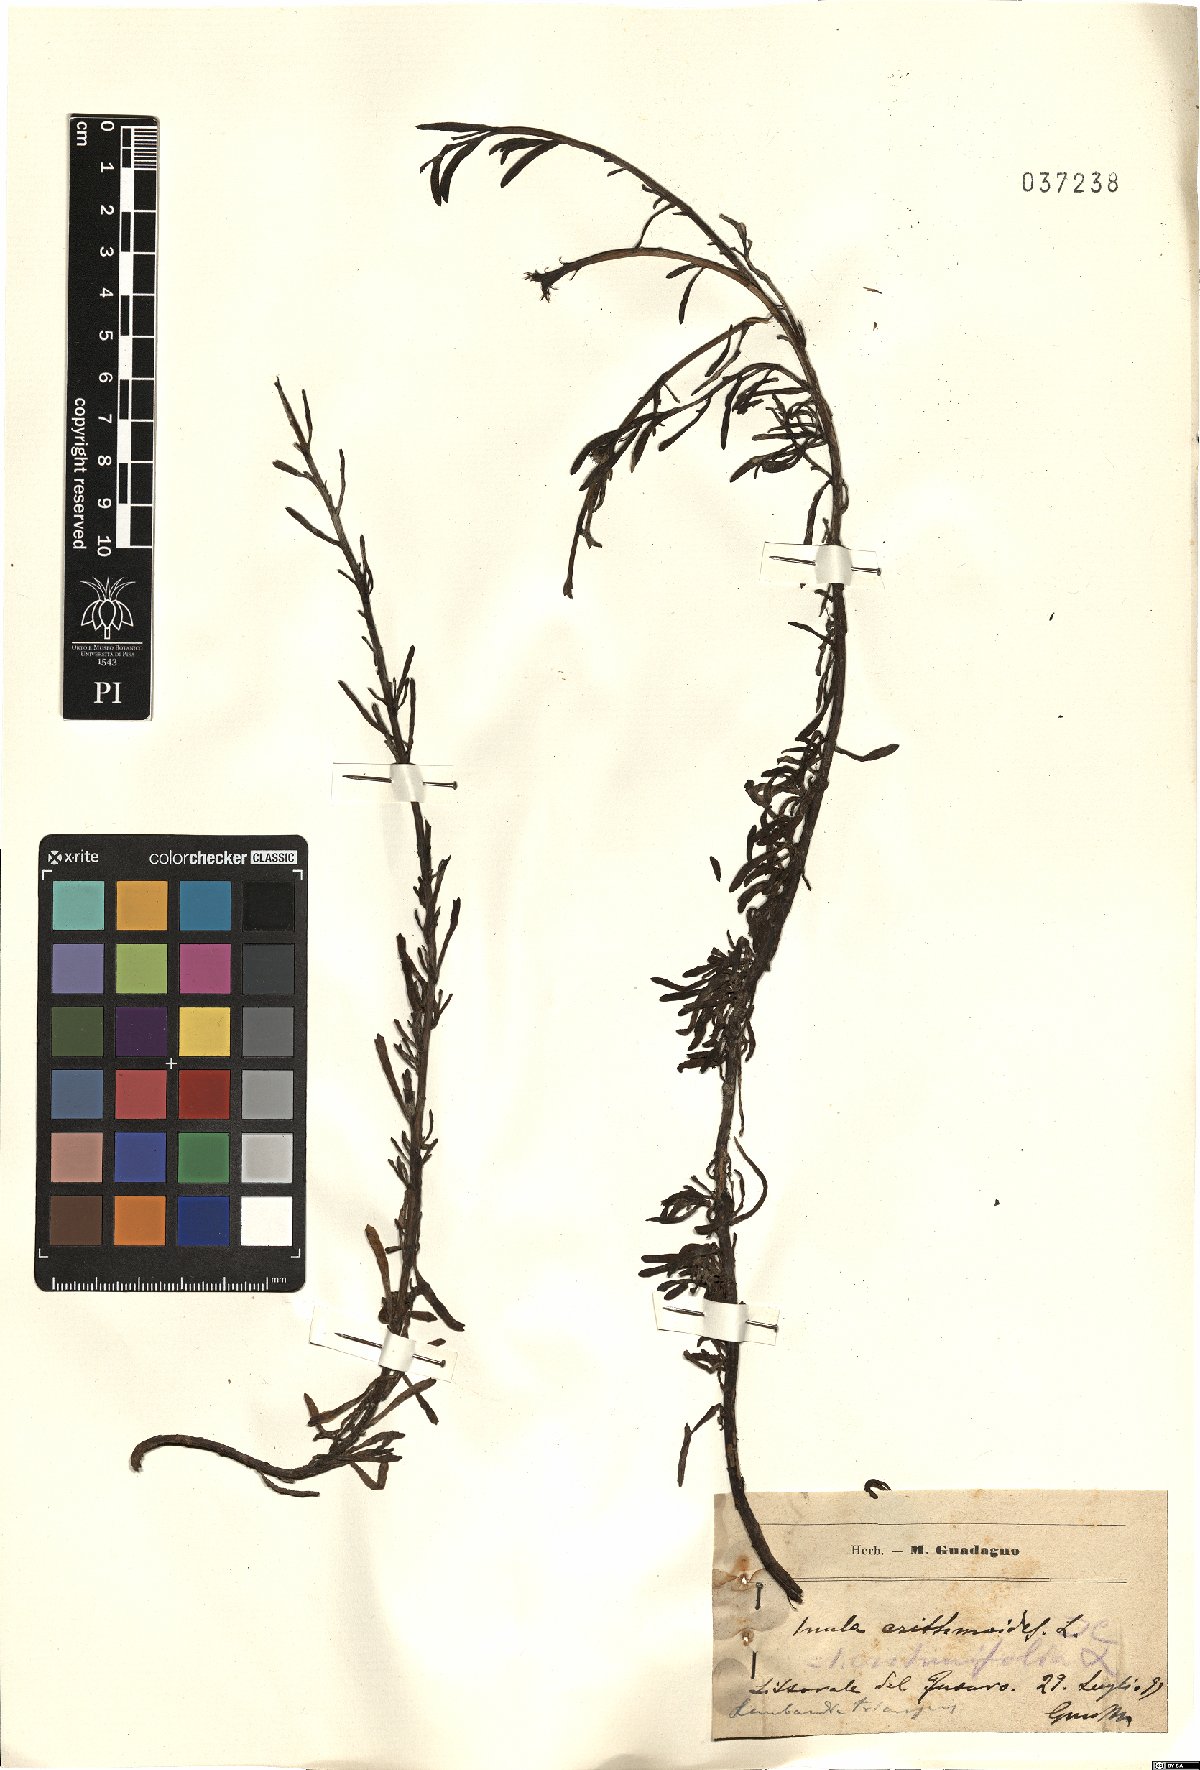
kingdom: Plantae
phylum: Tracheophyta
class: Magnoliopsida
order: Asterales
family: Asteraceae
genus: Limbarda
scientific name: Limbarda crithmoides
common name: Golden samphire
